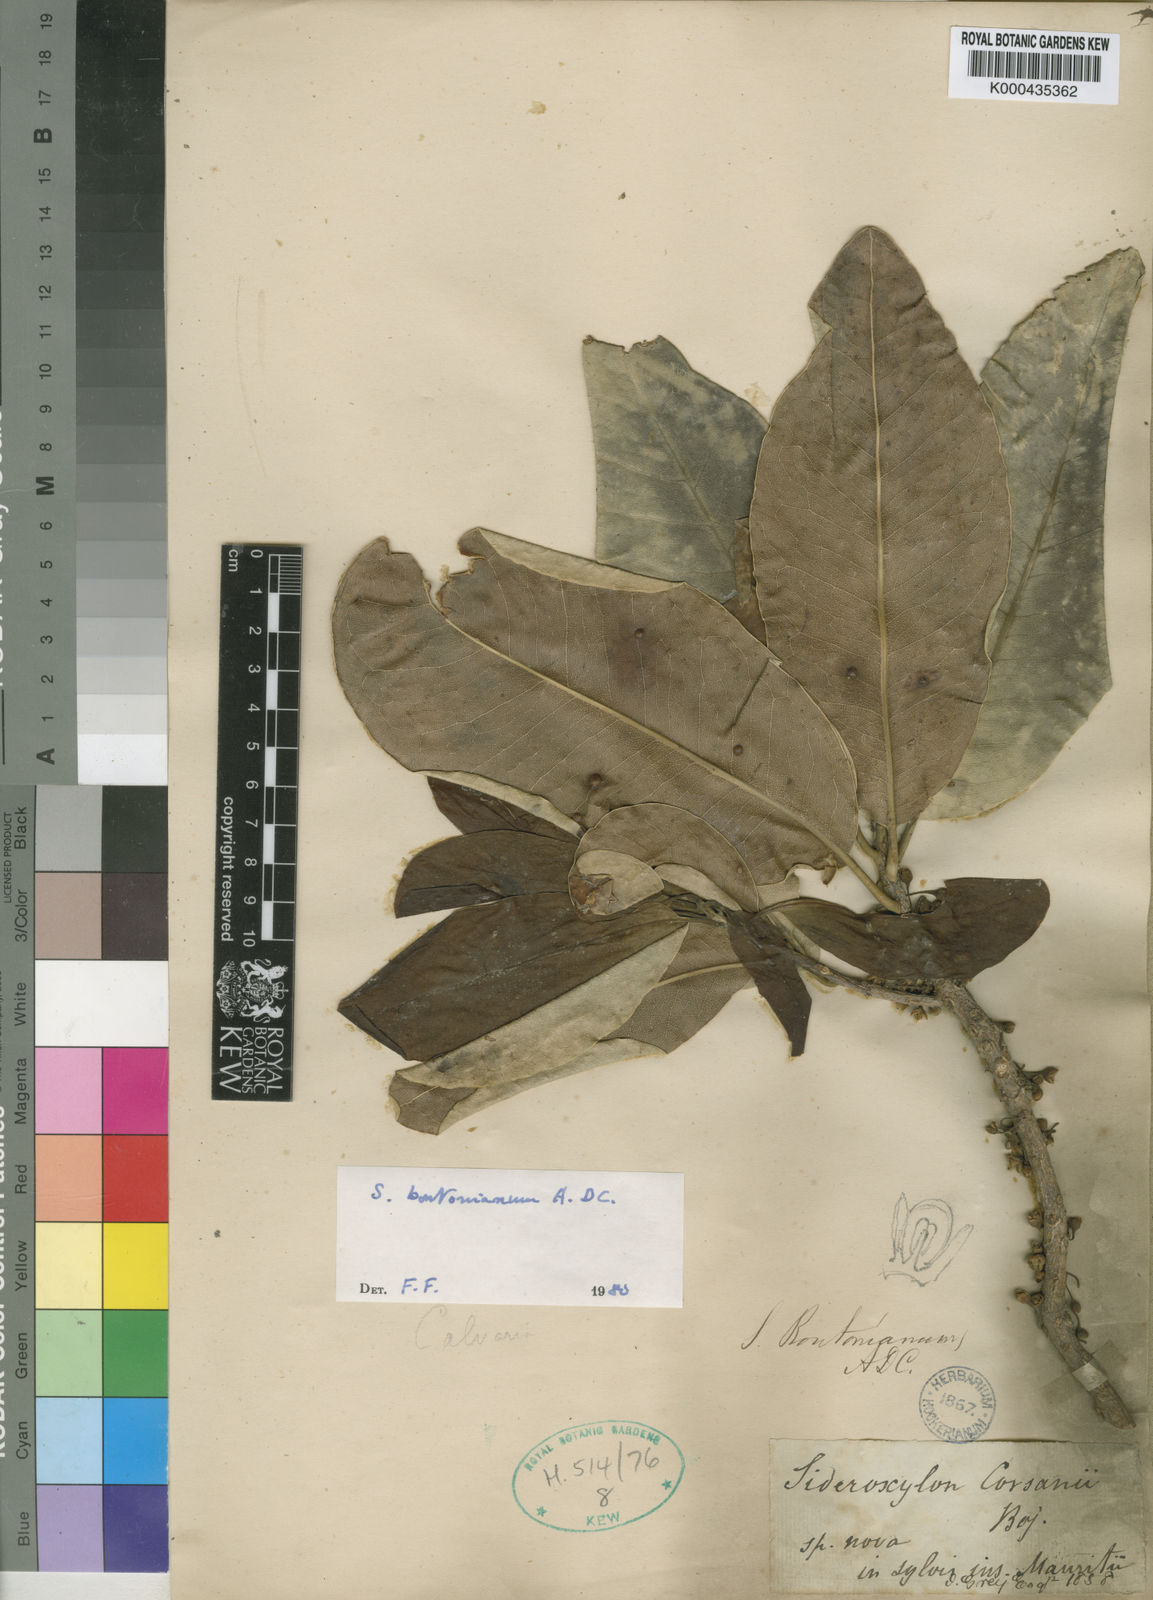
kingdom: Plantae
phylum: Tracheophyta
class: Magnoliopsida
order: Ericales
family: Sapotaceae
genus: Sideroxylon
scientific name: Sideroxylon boutonianum
